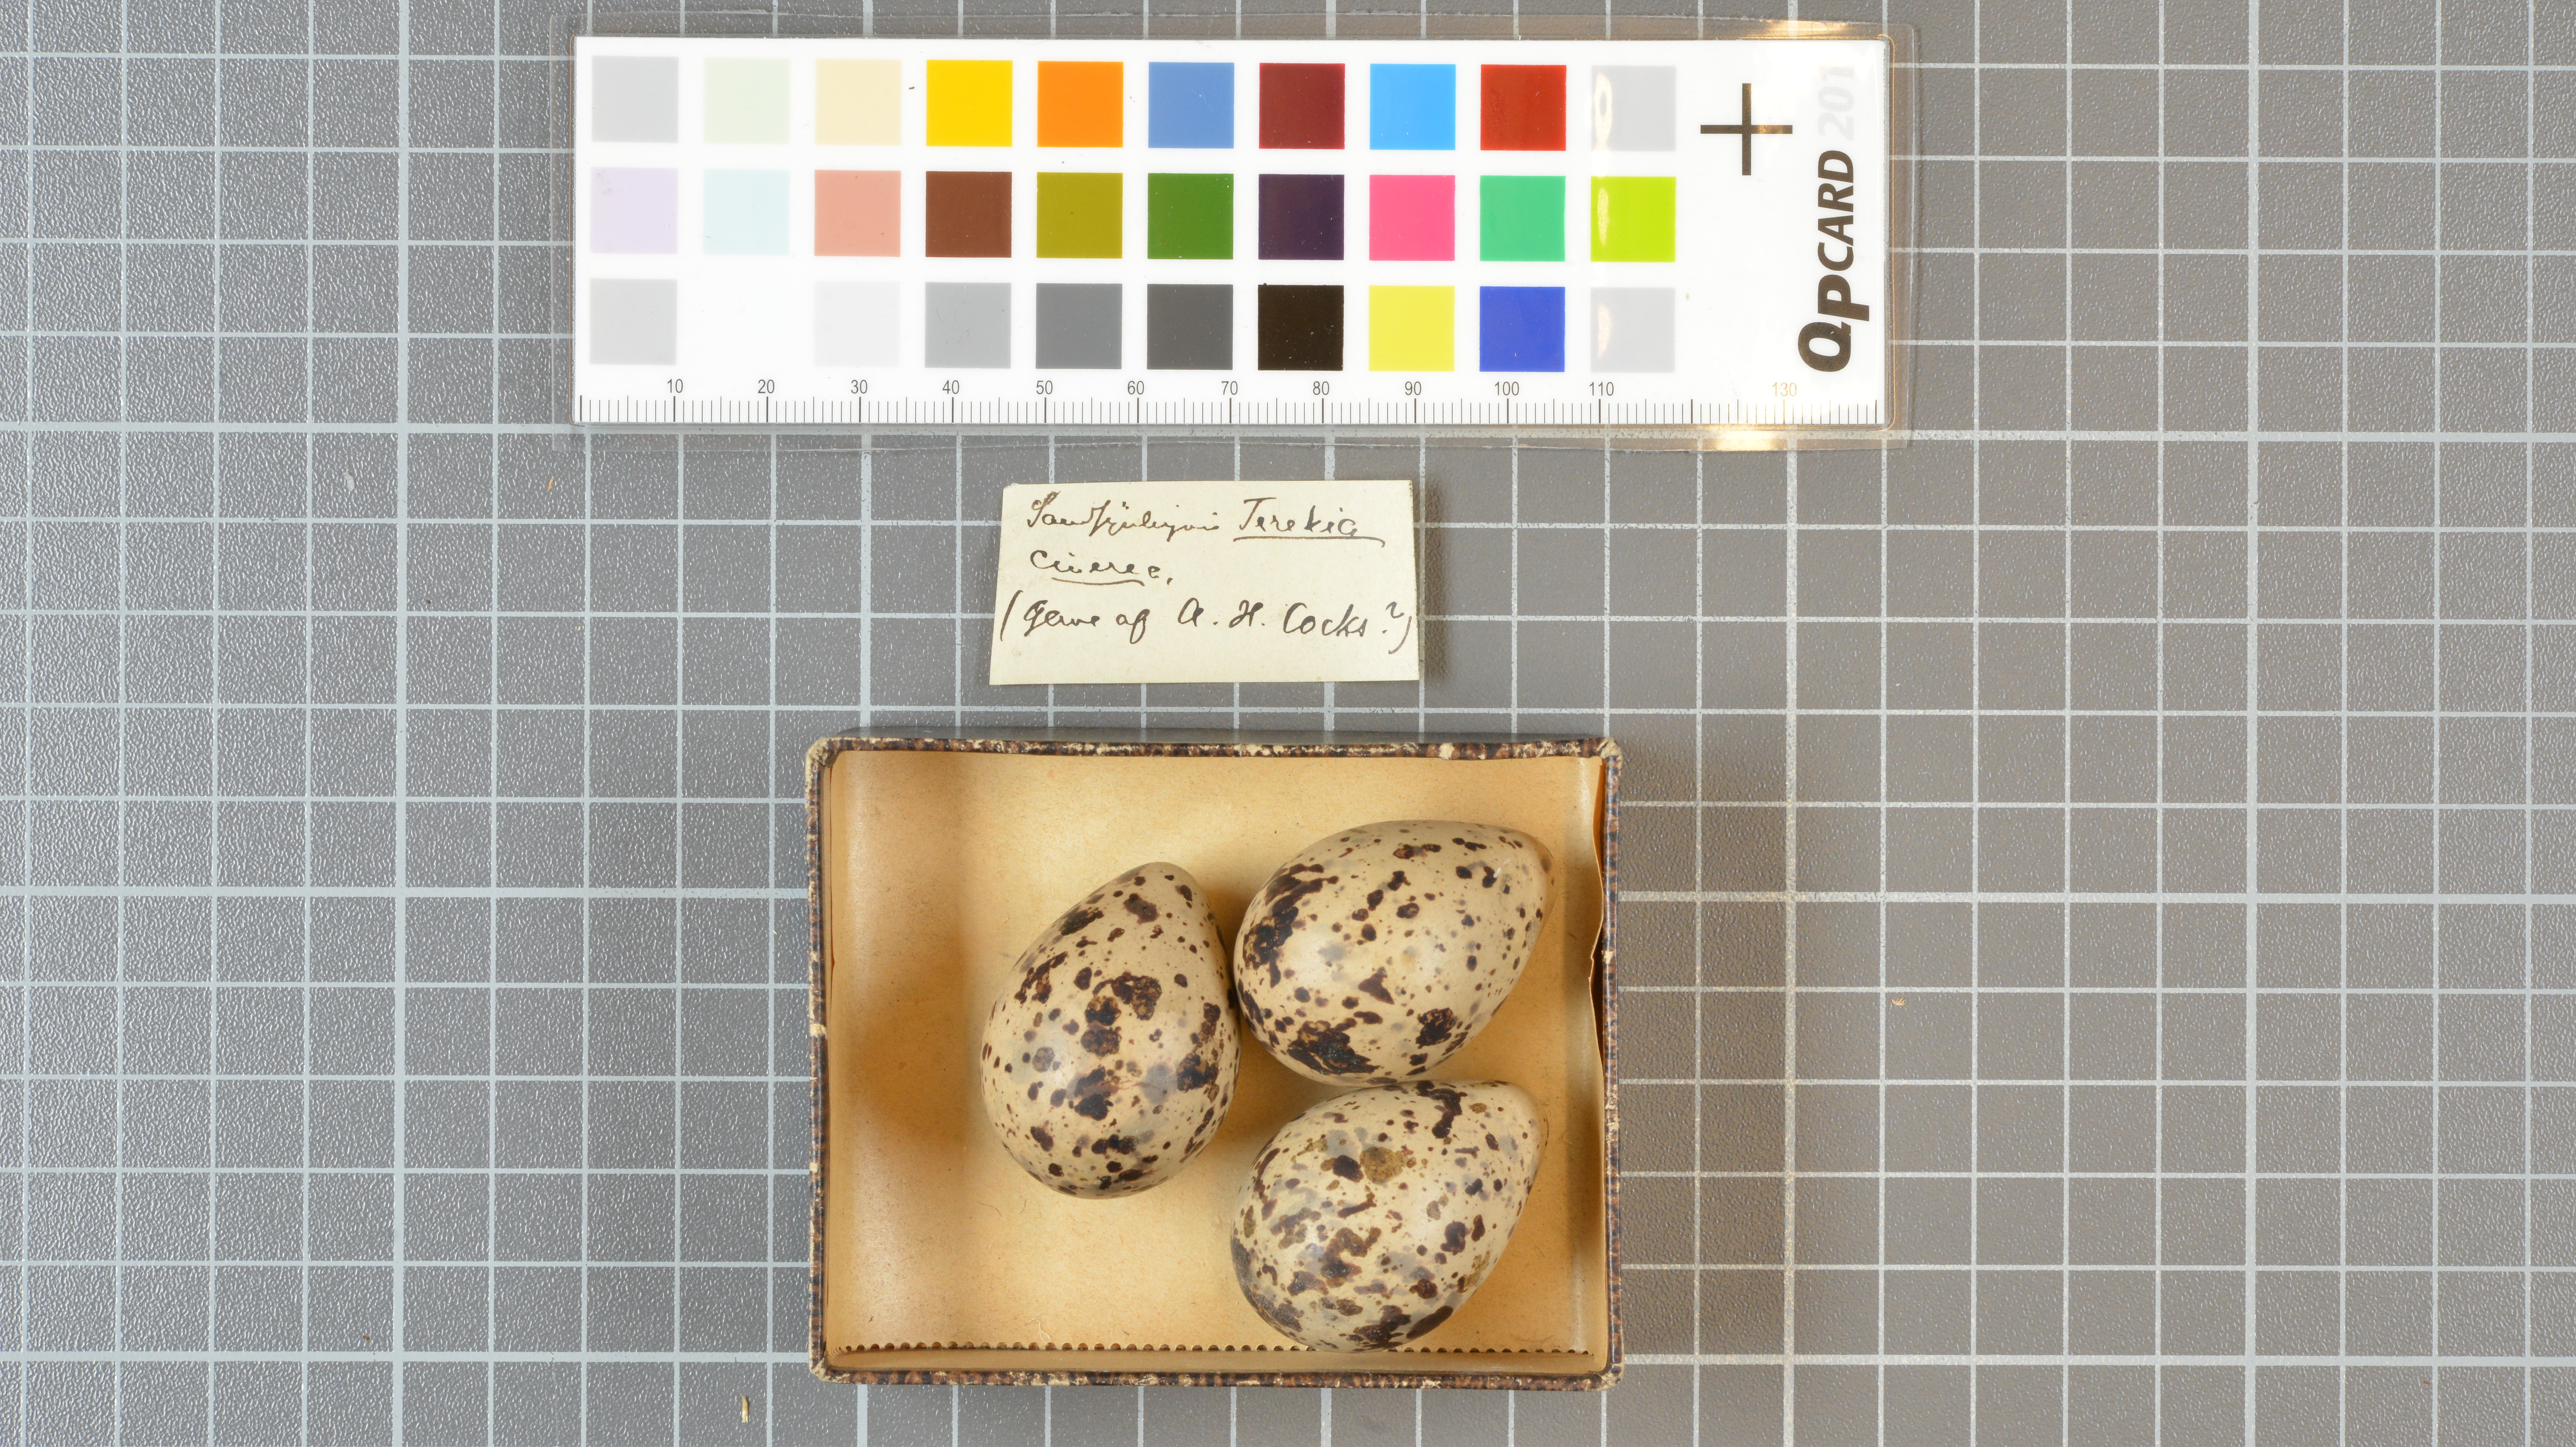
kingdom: Animalia
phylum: Chordata
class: Aves
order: Charadriiformes
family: Scolopacidae
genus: Xenus
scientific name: Xenus cinereus
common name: Terek sandpiper
